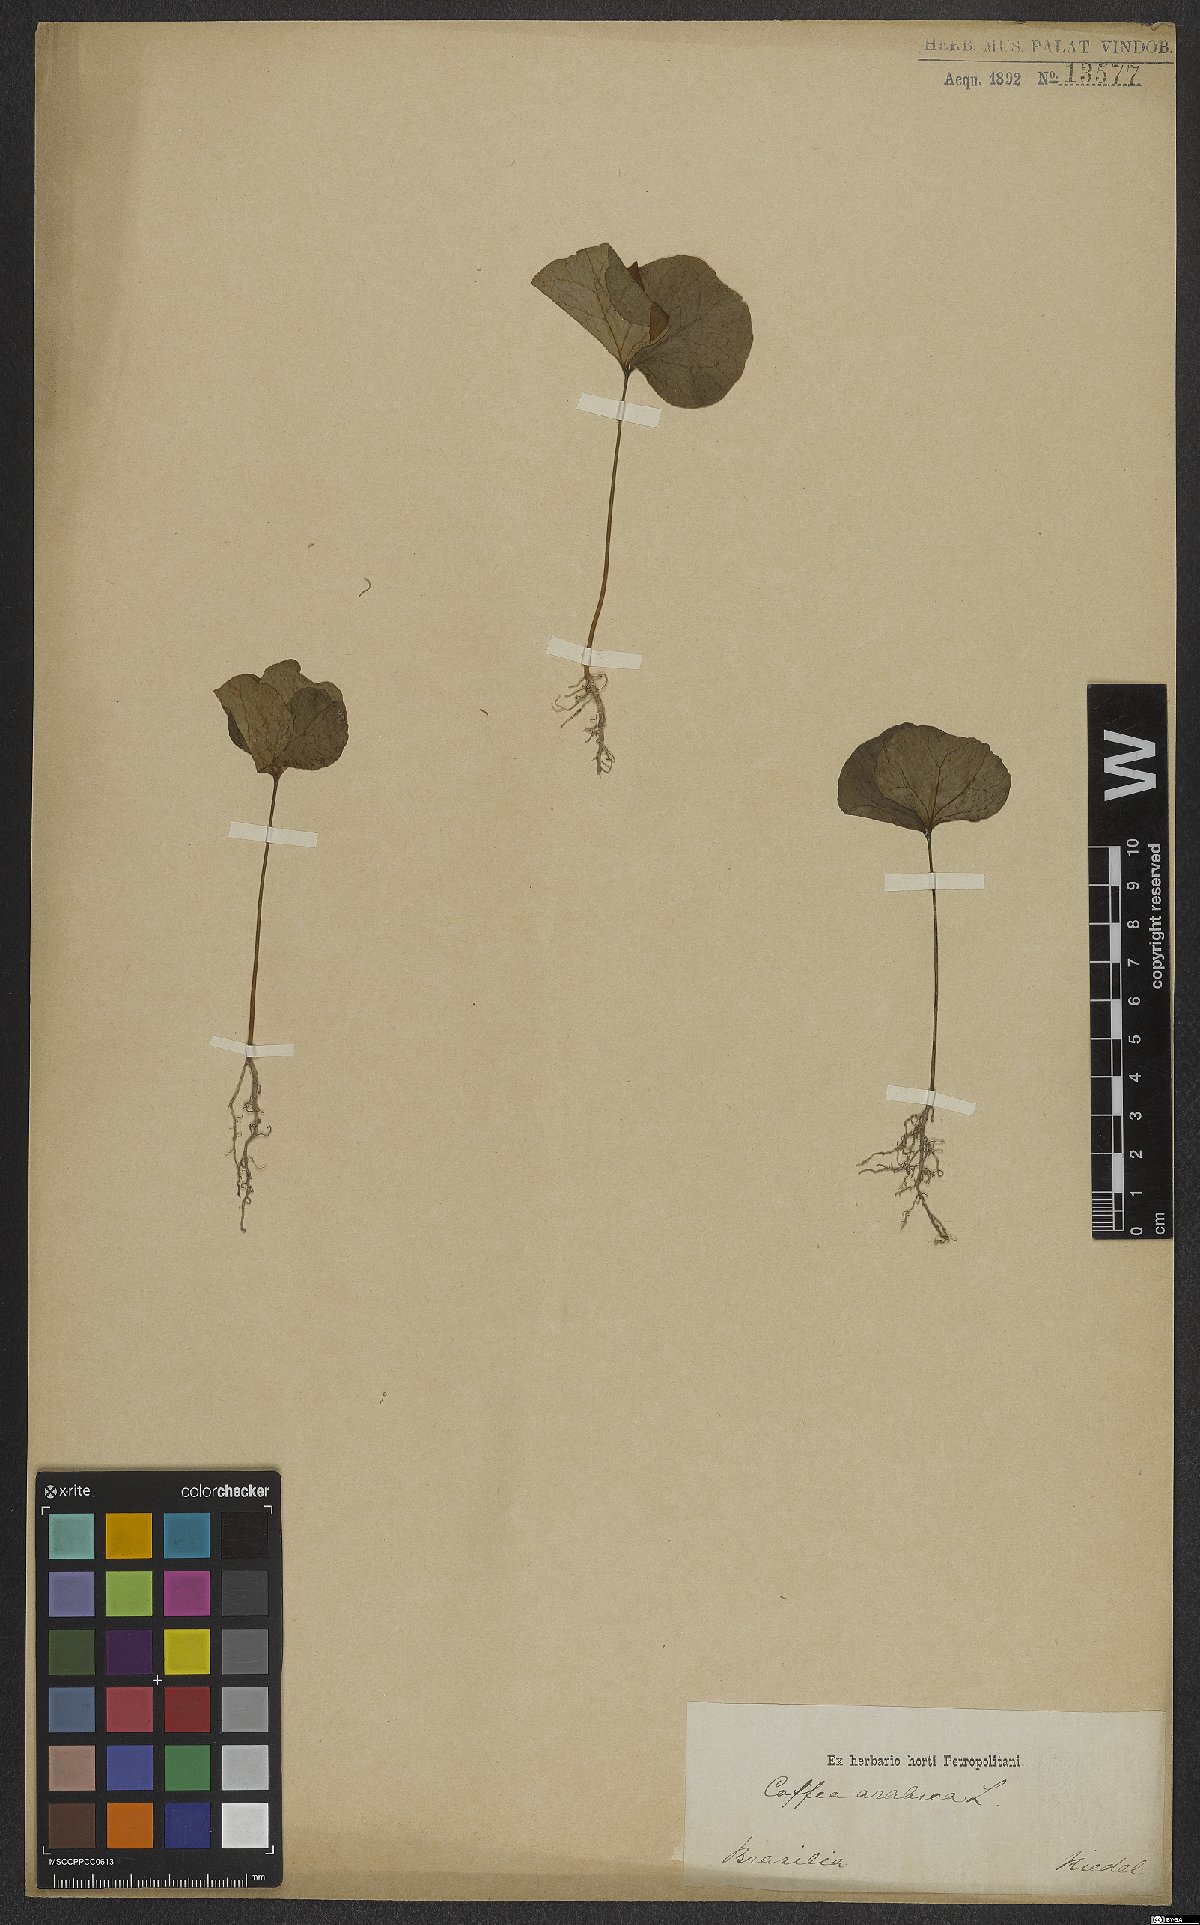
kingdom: Plantae
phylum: Tracheophyta
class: Magnoliopsida
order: Gentianales
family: Rubiaceae
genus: Coffea
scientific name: Coffea arabica
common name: Coffee
